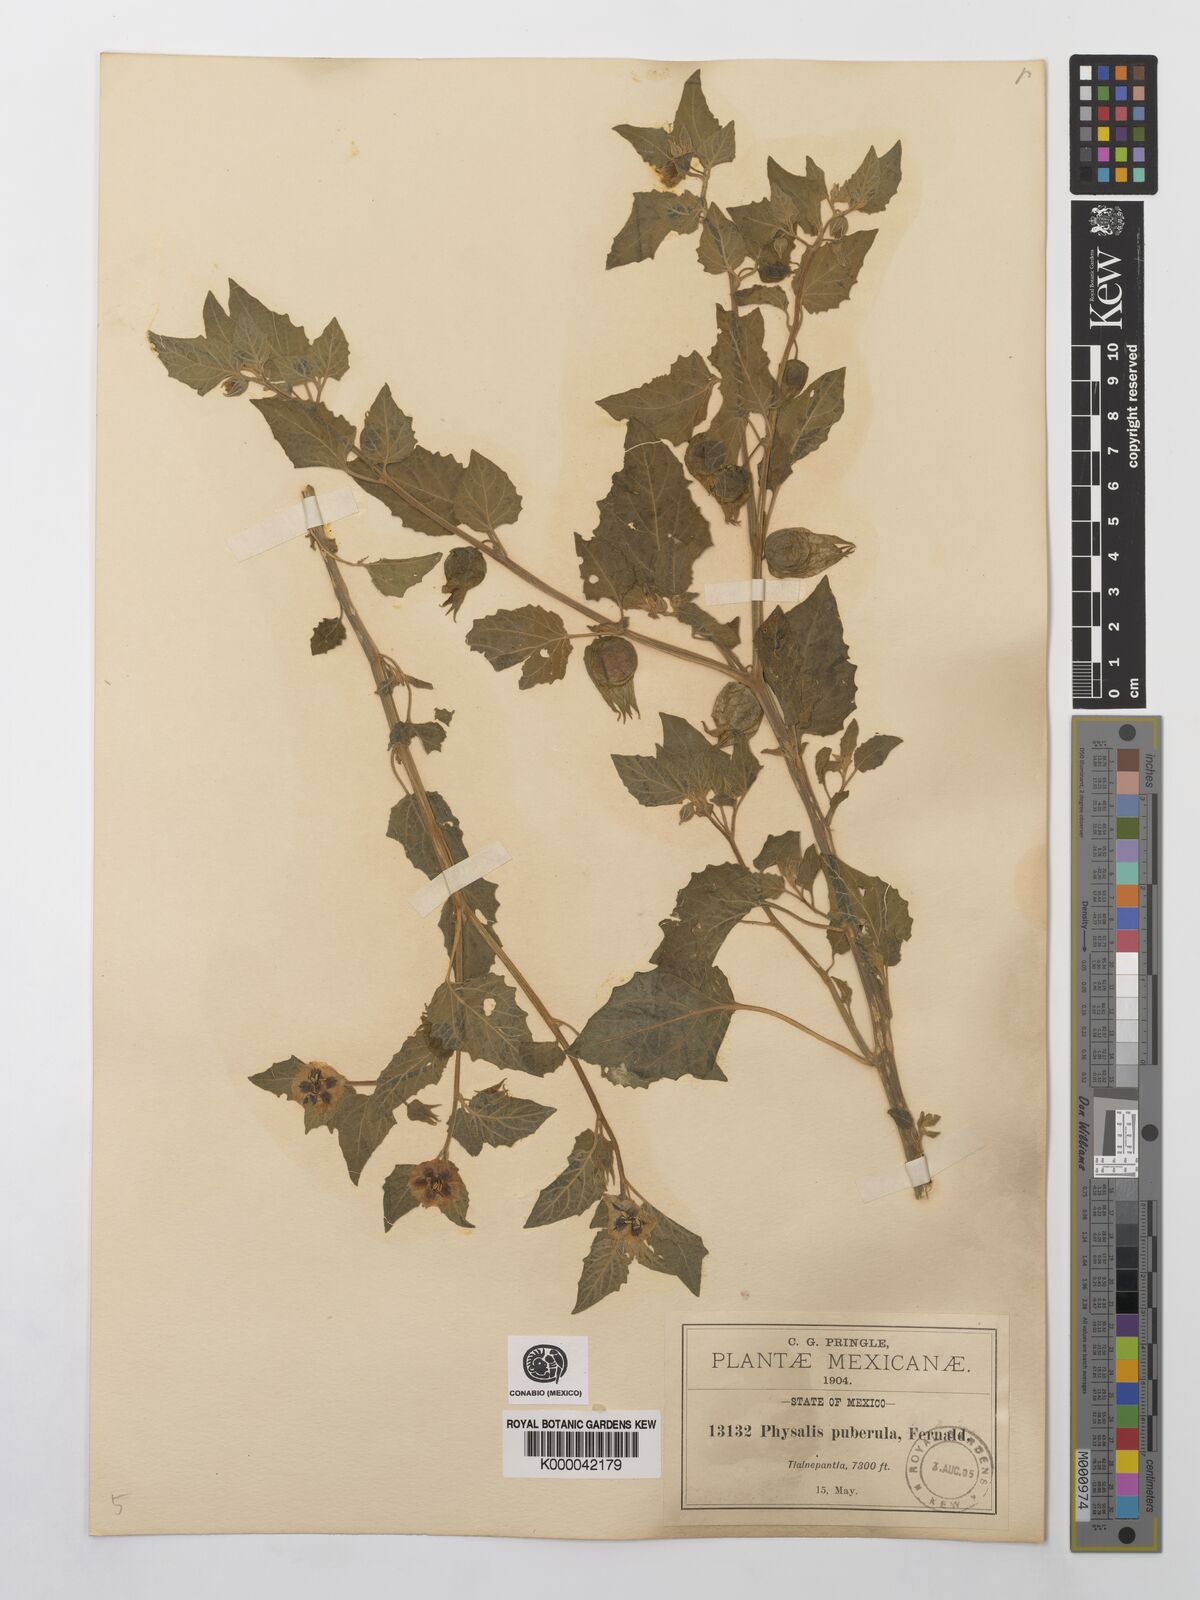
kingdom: Plantae
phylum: Tracheophyta
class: Magnoliopsida
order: Solanales
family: Solanaceae
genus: Physalis
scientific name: Physalis orizabae
